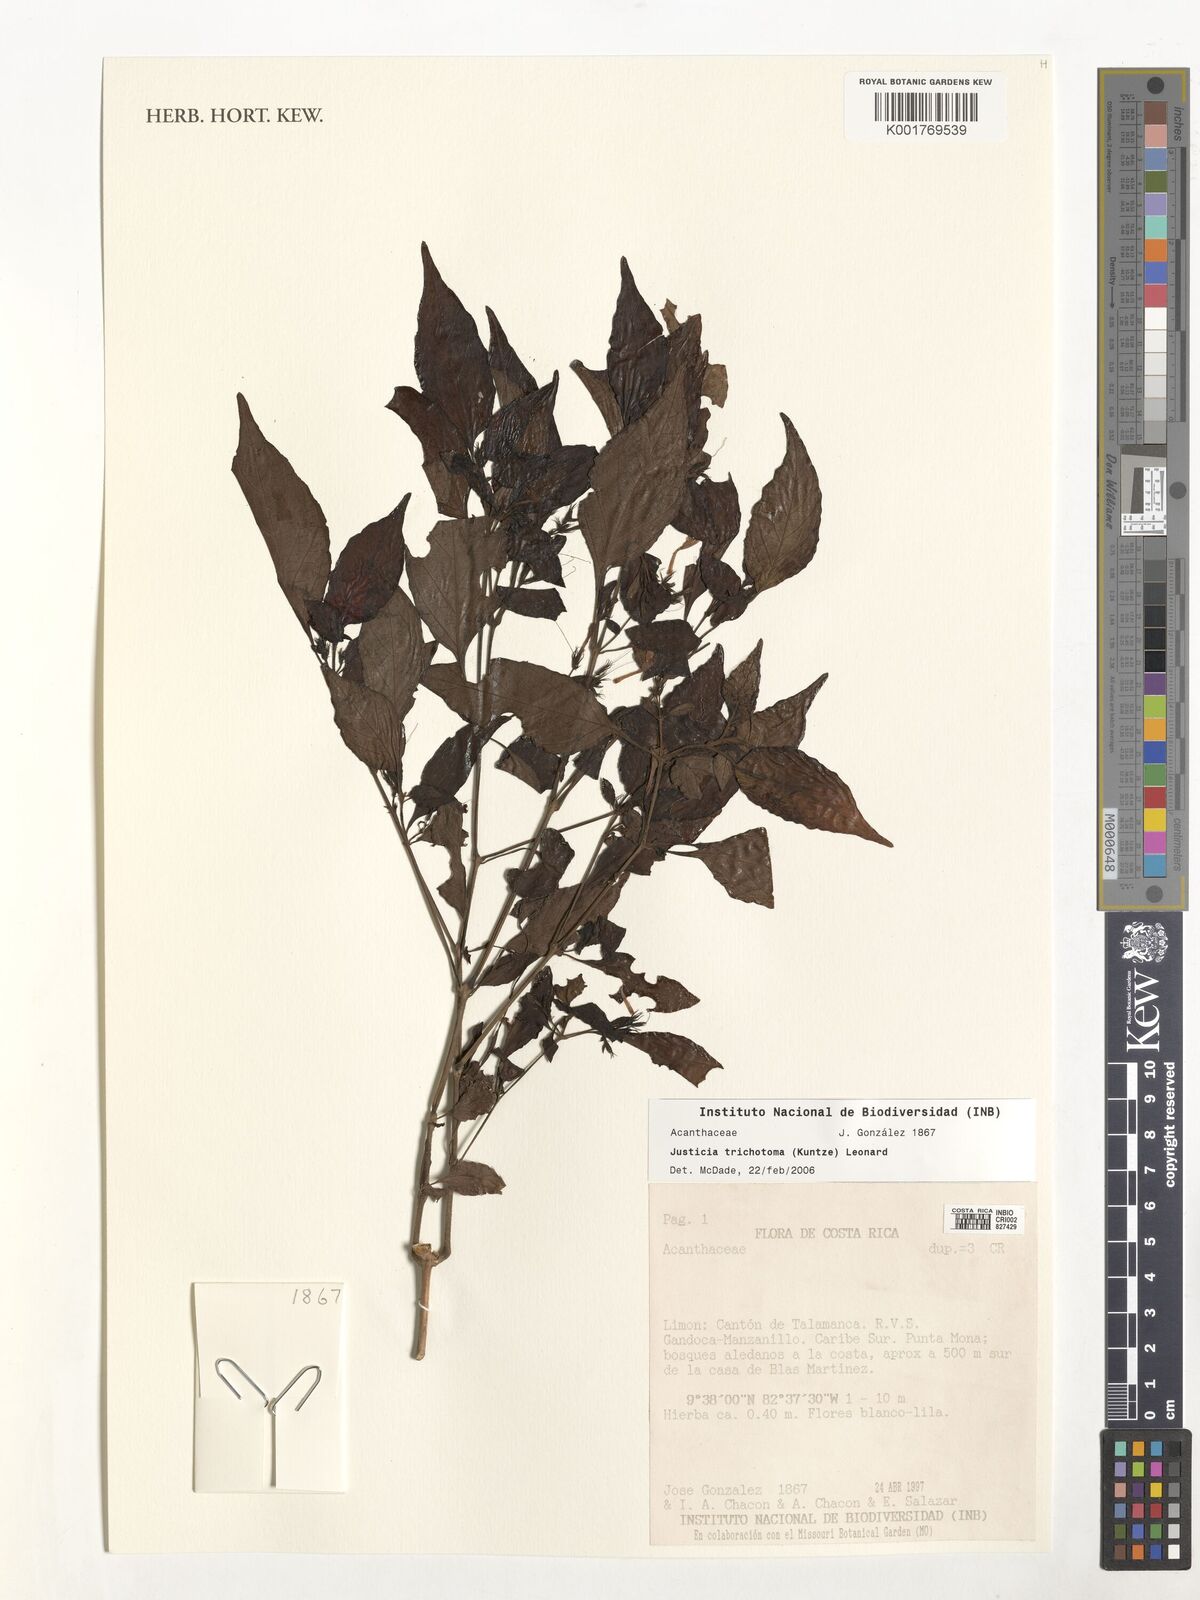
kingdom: Plantae
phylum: Tracheophyta
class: Magnoliopsida
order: Lamiales
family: Acanthaceae
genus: Justicia
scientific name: Justicia trichotoma
